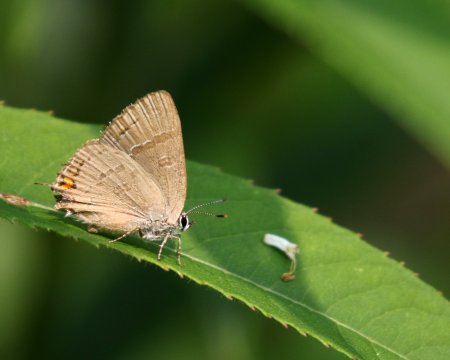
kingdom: Animalia
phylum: Arthropoda
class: Insecta
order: Lepidoptera
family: Lycaenidae
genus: Satyrium
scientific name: Satyrium calanus
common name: Banded Hairstreak
